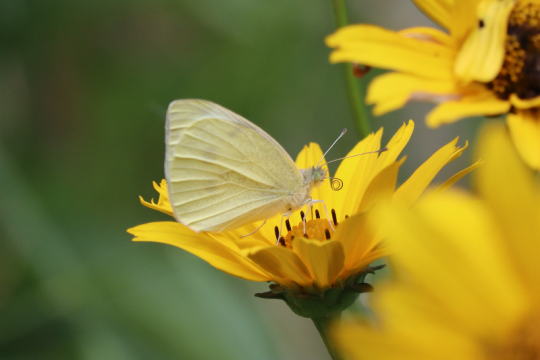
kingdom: Animalia
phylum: Arthropoda
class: Insecta
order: Lepidoptera
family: Pieridae
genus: Pieris
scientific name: Pieris rapae
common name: Cabbage White
